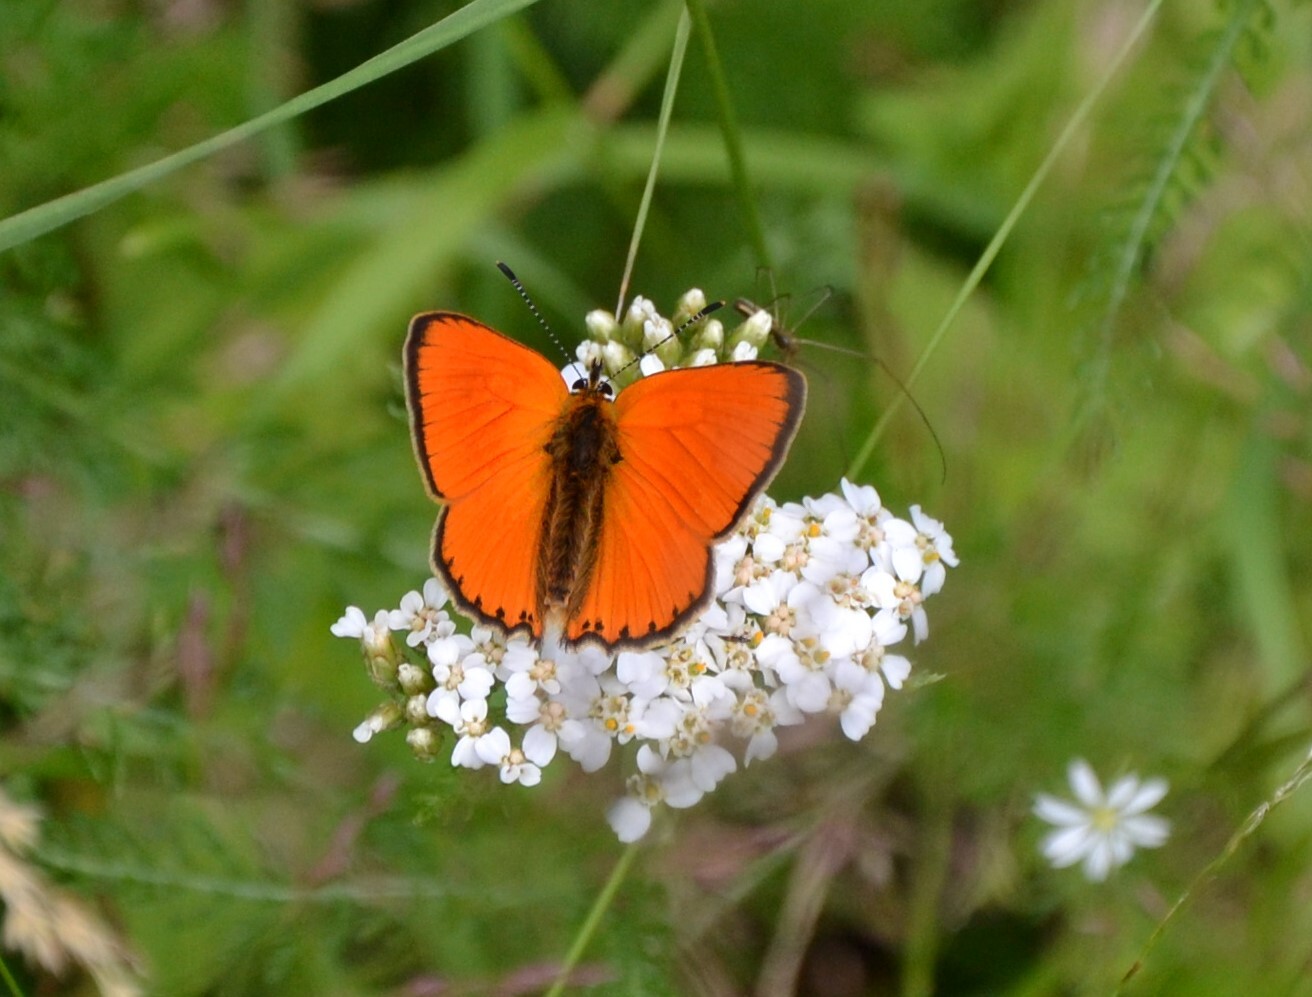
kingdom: Animalia
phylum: Arthropoda
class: Insecta
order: Lepidoptera
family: Lycaenidae
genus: Lycaena
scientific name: Lycaena virgaureae
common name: Scarce copper
